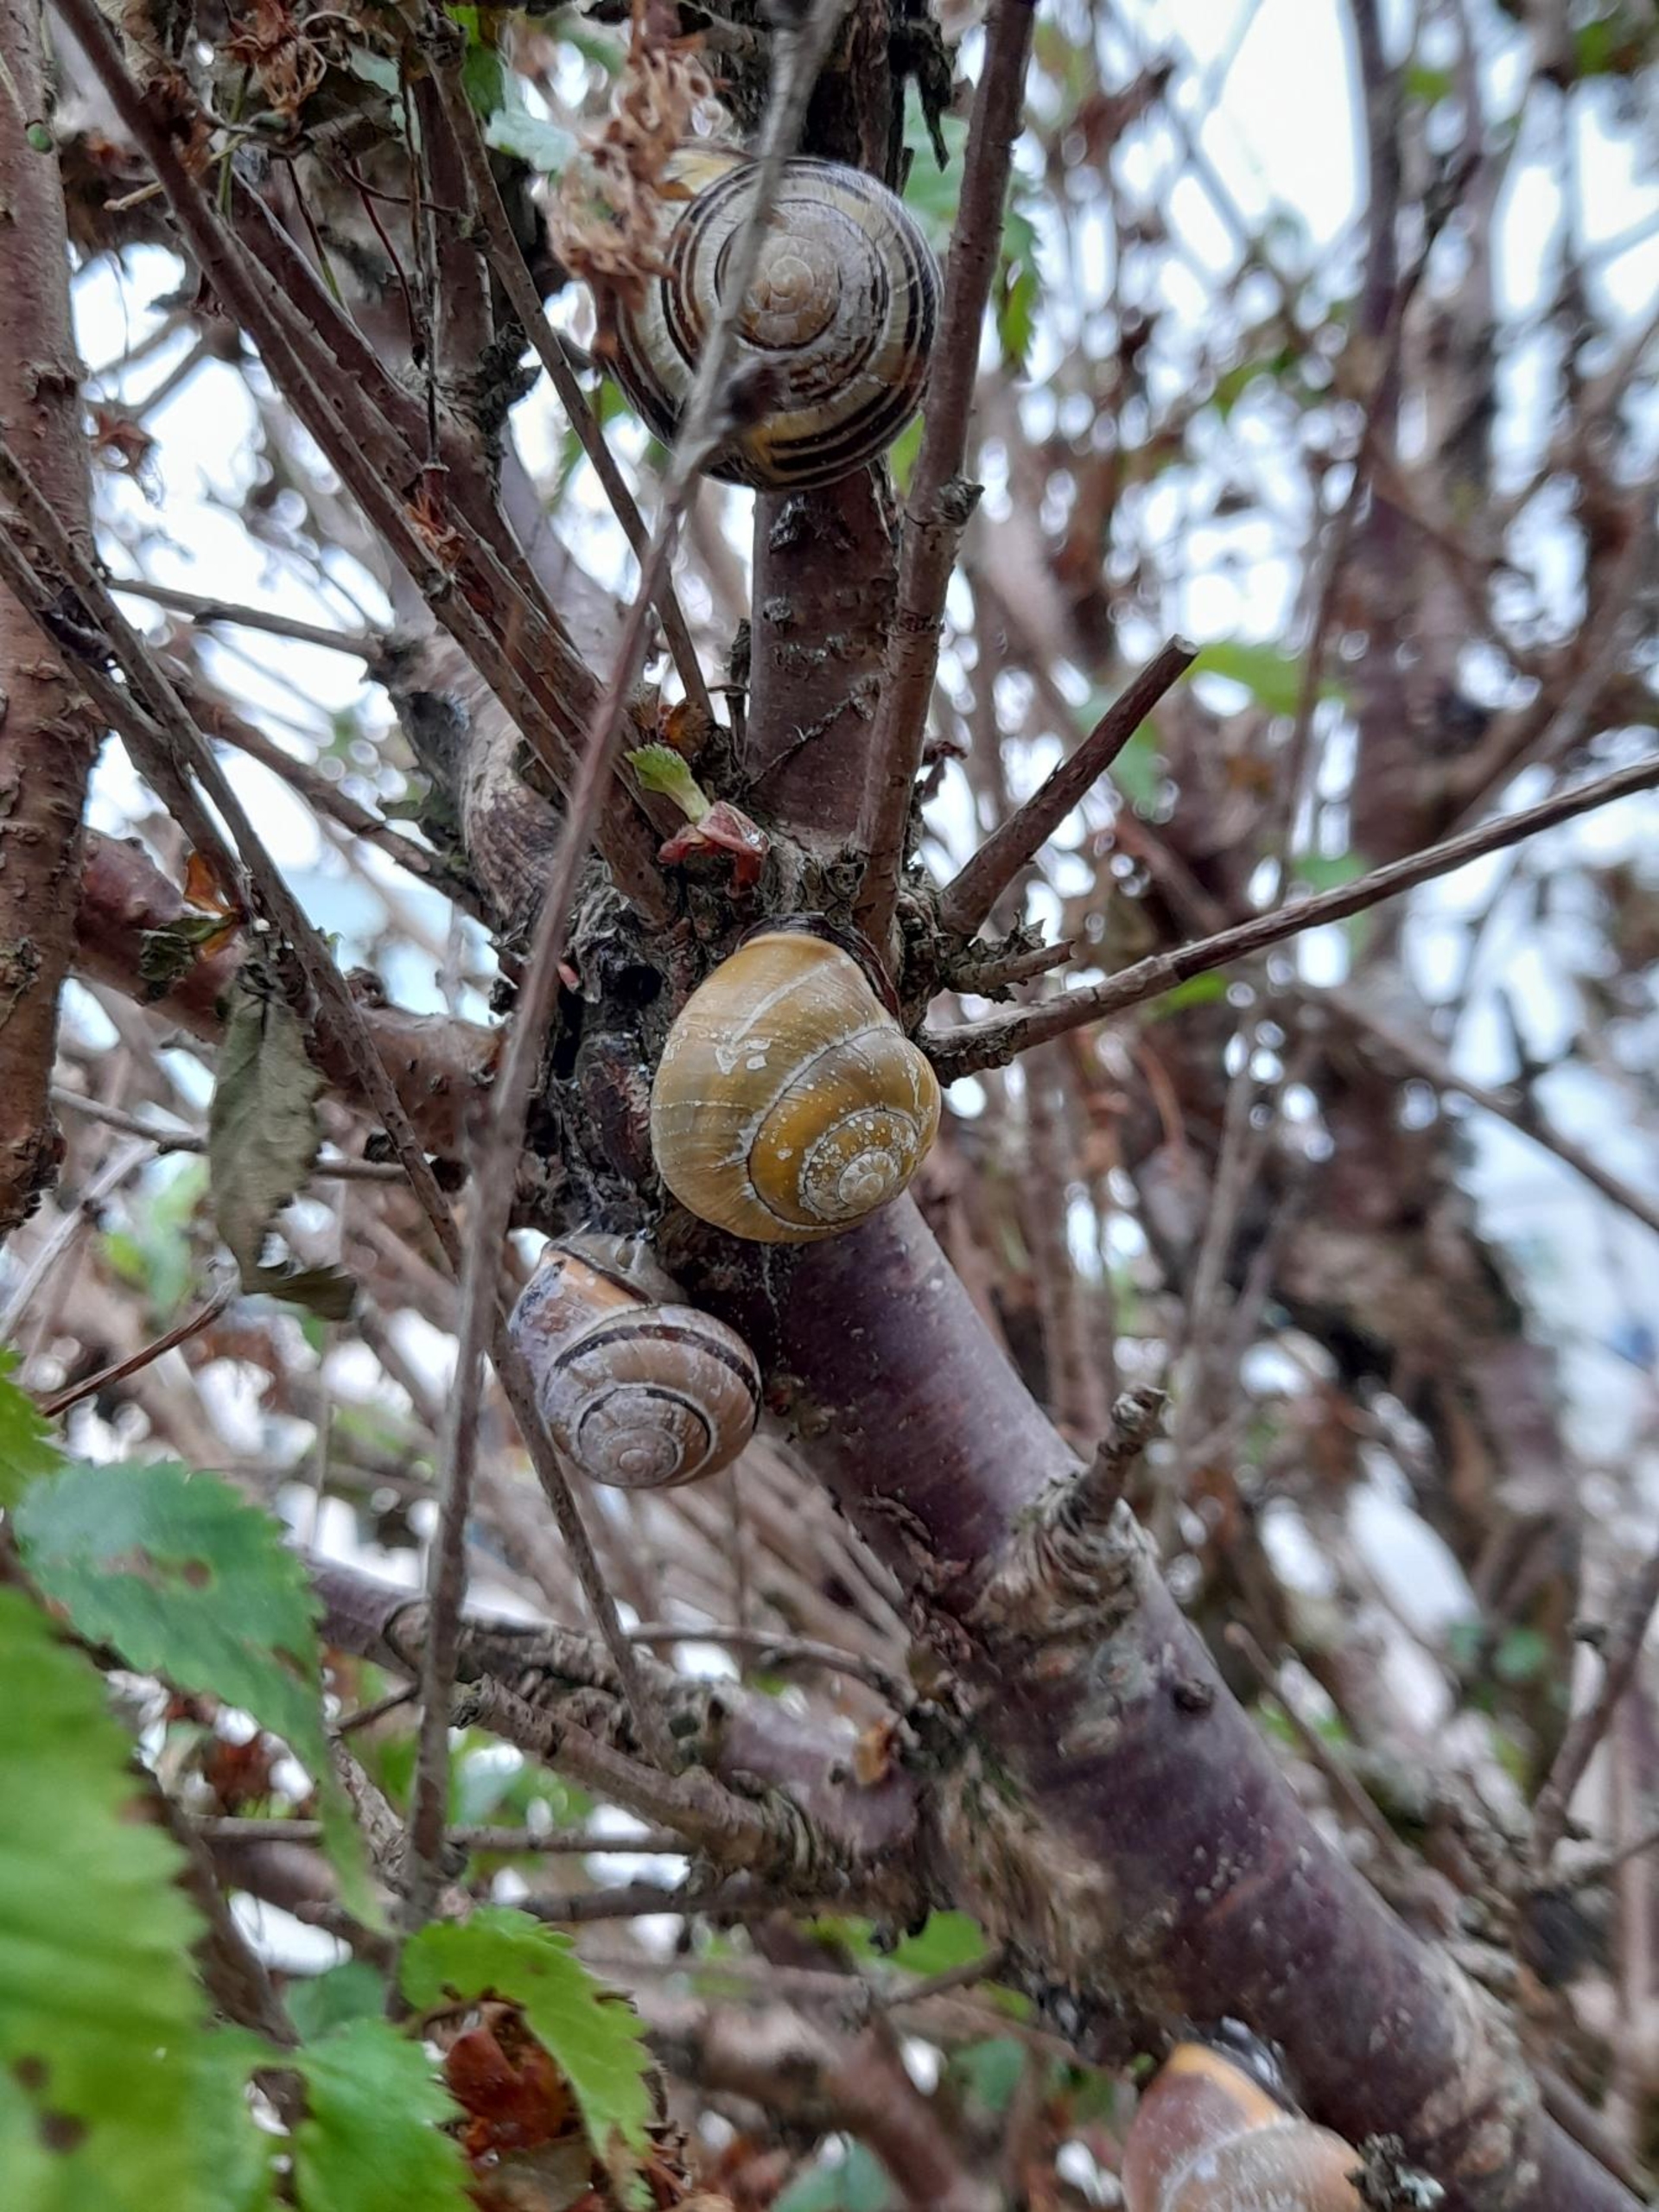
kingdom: Animalia
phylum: Mollusca
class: Gastropoda
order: Stylommatophora
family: Helicidae
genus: Cepaea
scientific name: Cepaea nemoralis
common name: Lundsnegl
